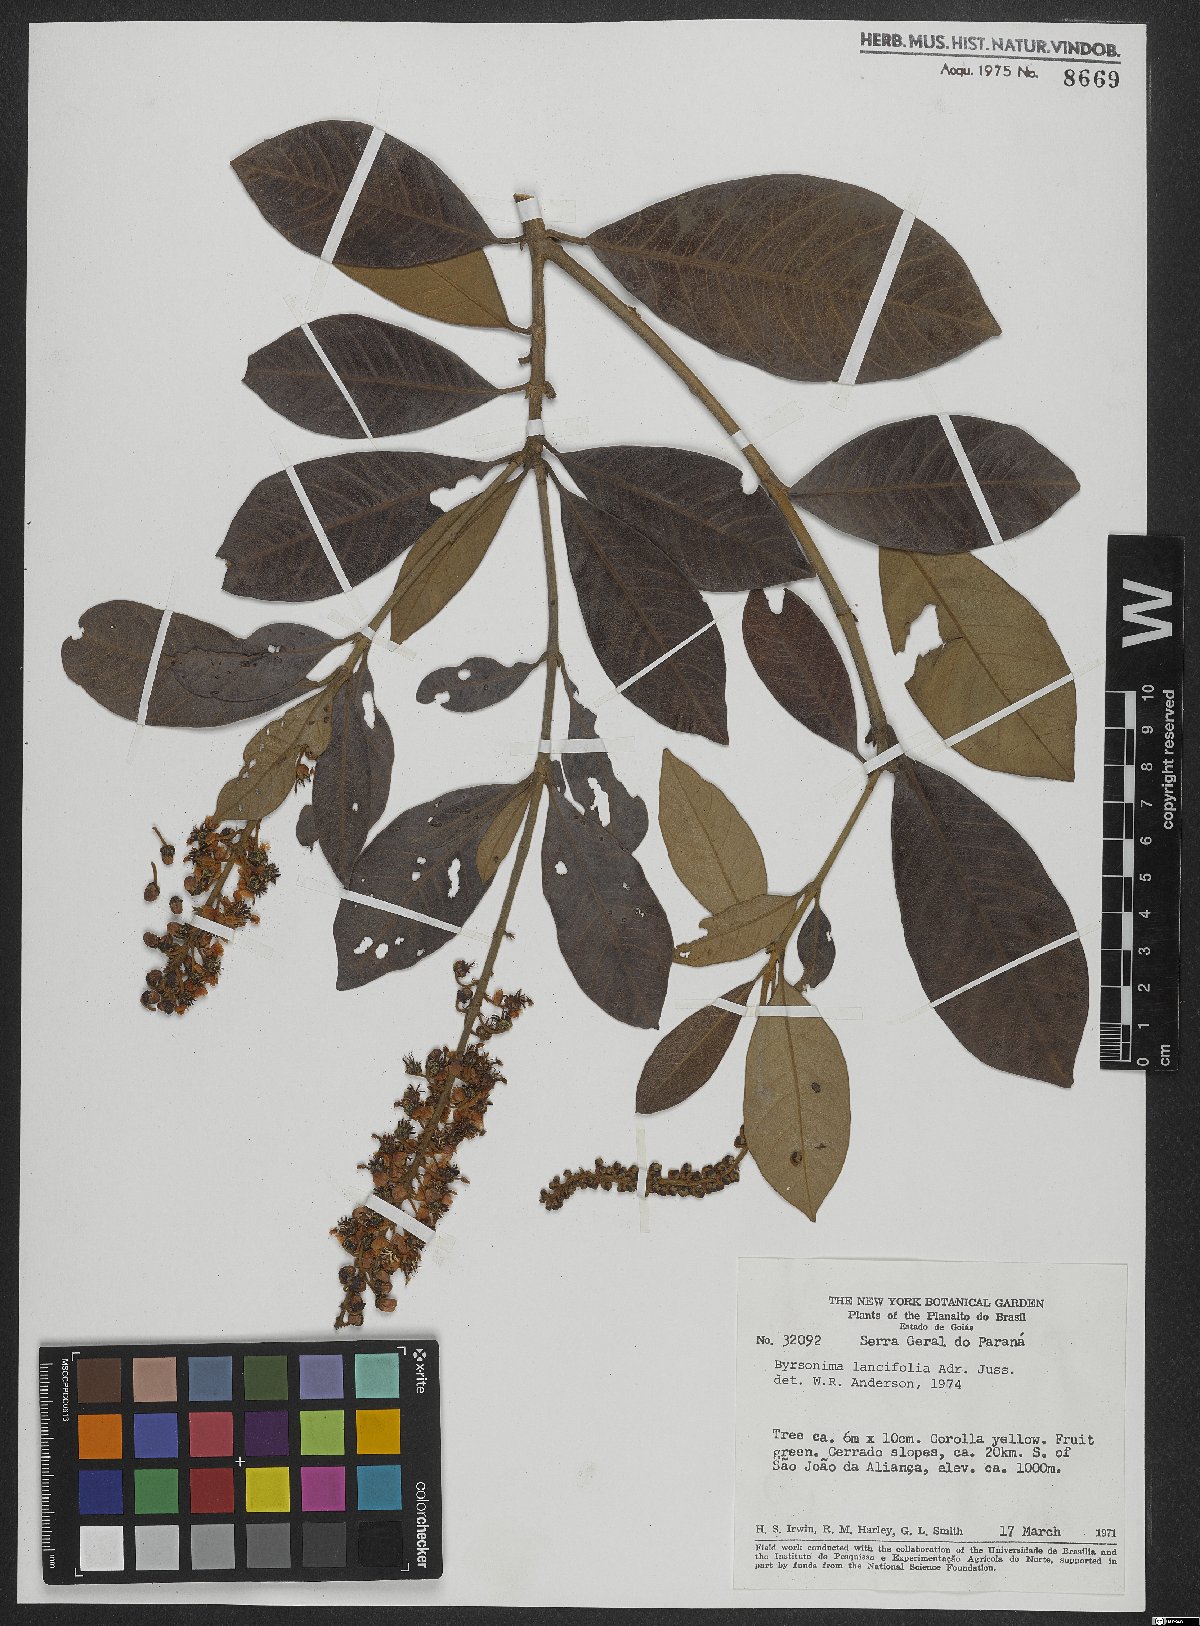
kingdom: Plantae
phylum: Tracheophyta
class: Magnoliopsida
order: Malpighiales
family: Malpighiaceae
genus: Byrsonima
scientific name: Byrsonima lancifolia
